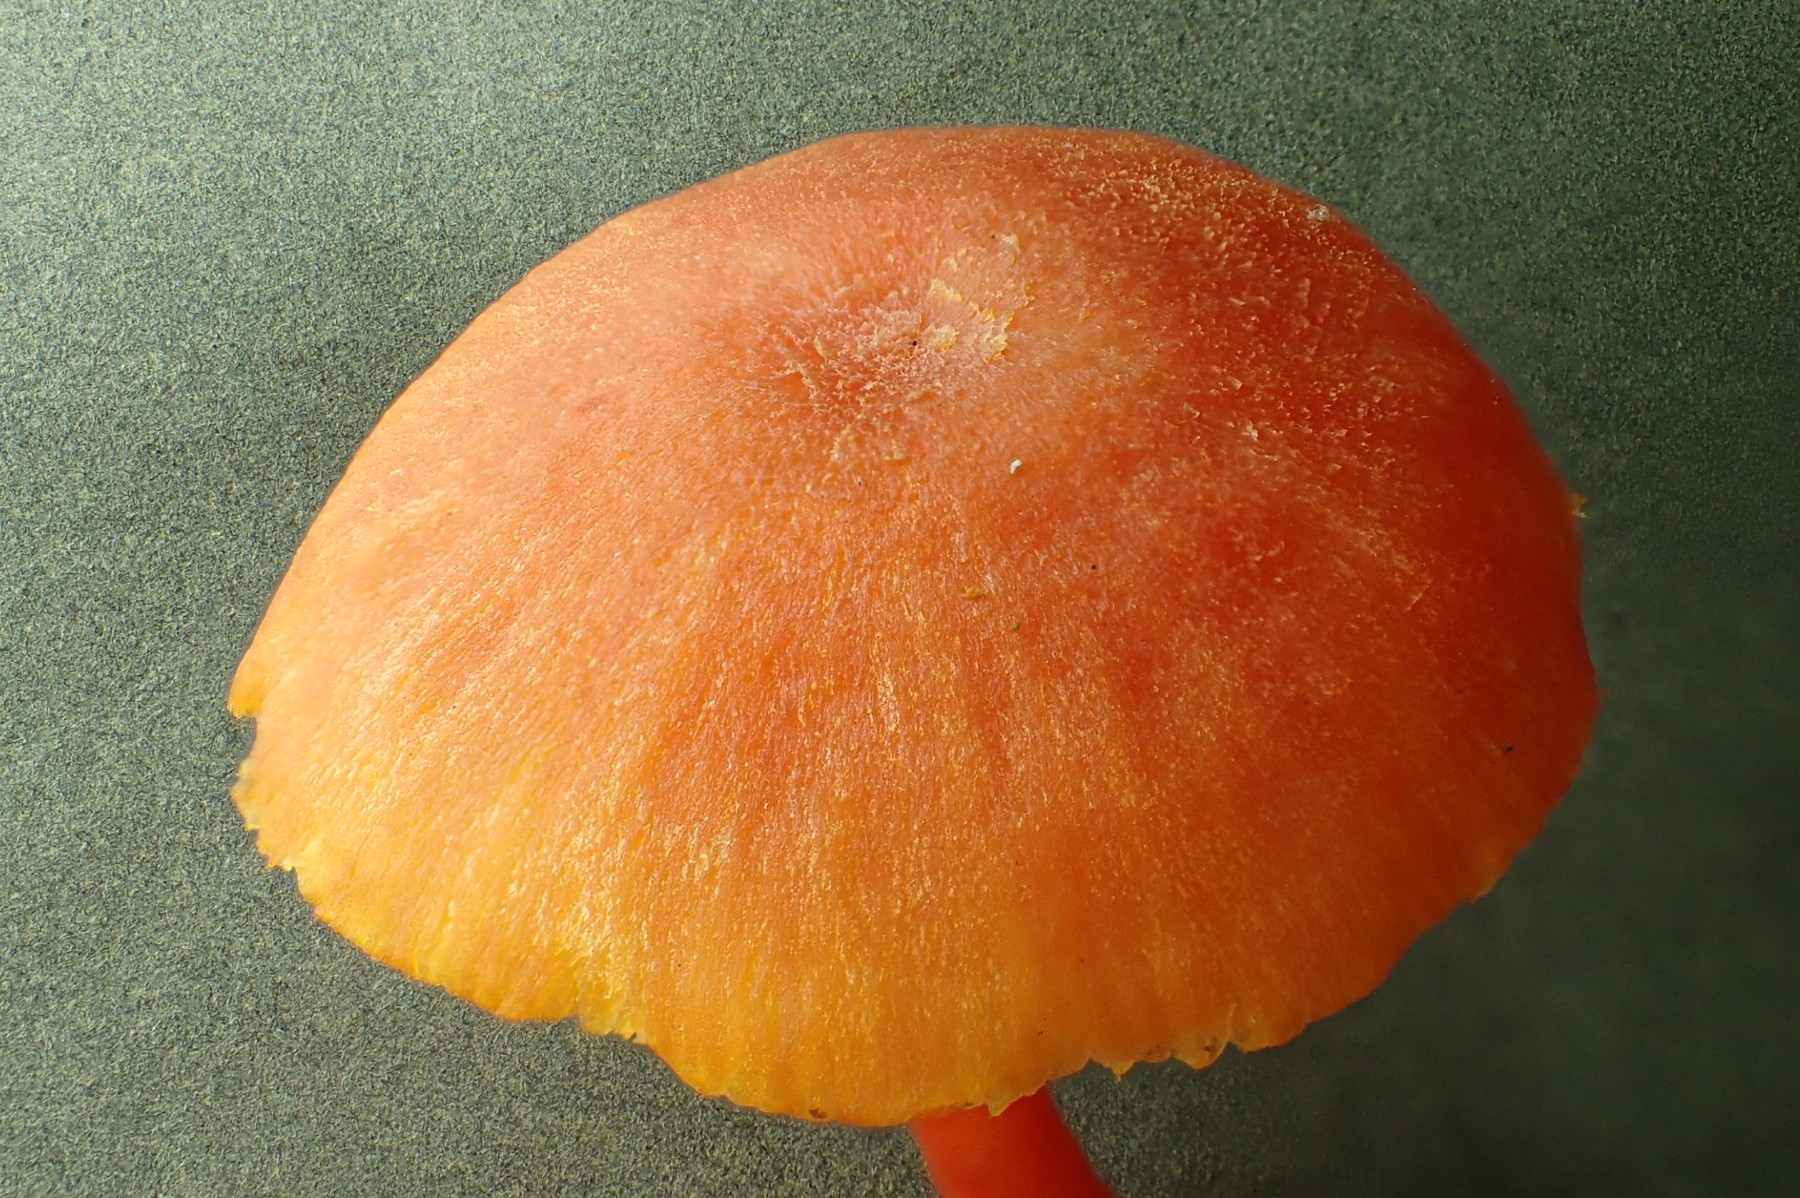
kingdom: Fungi
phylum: Basidiomycota
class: Agaricomycetes
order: Agaricales
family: Hygrophoraceae
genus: Hygrocybe
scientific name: Hygrocybe miniata
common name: mønje-vokshat
